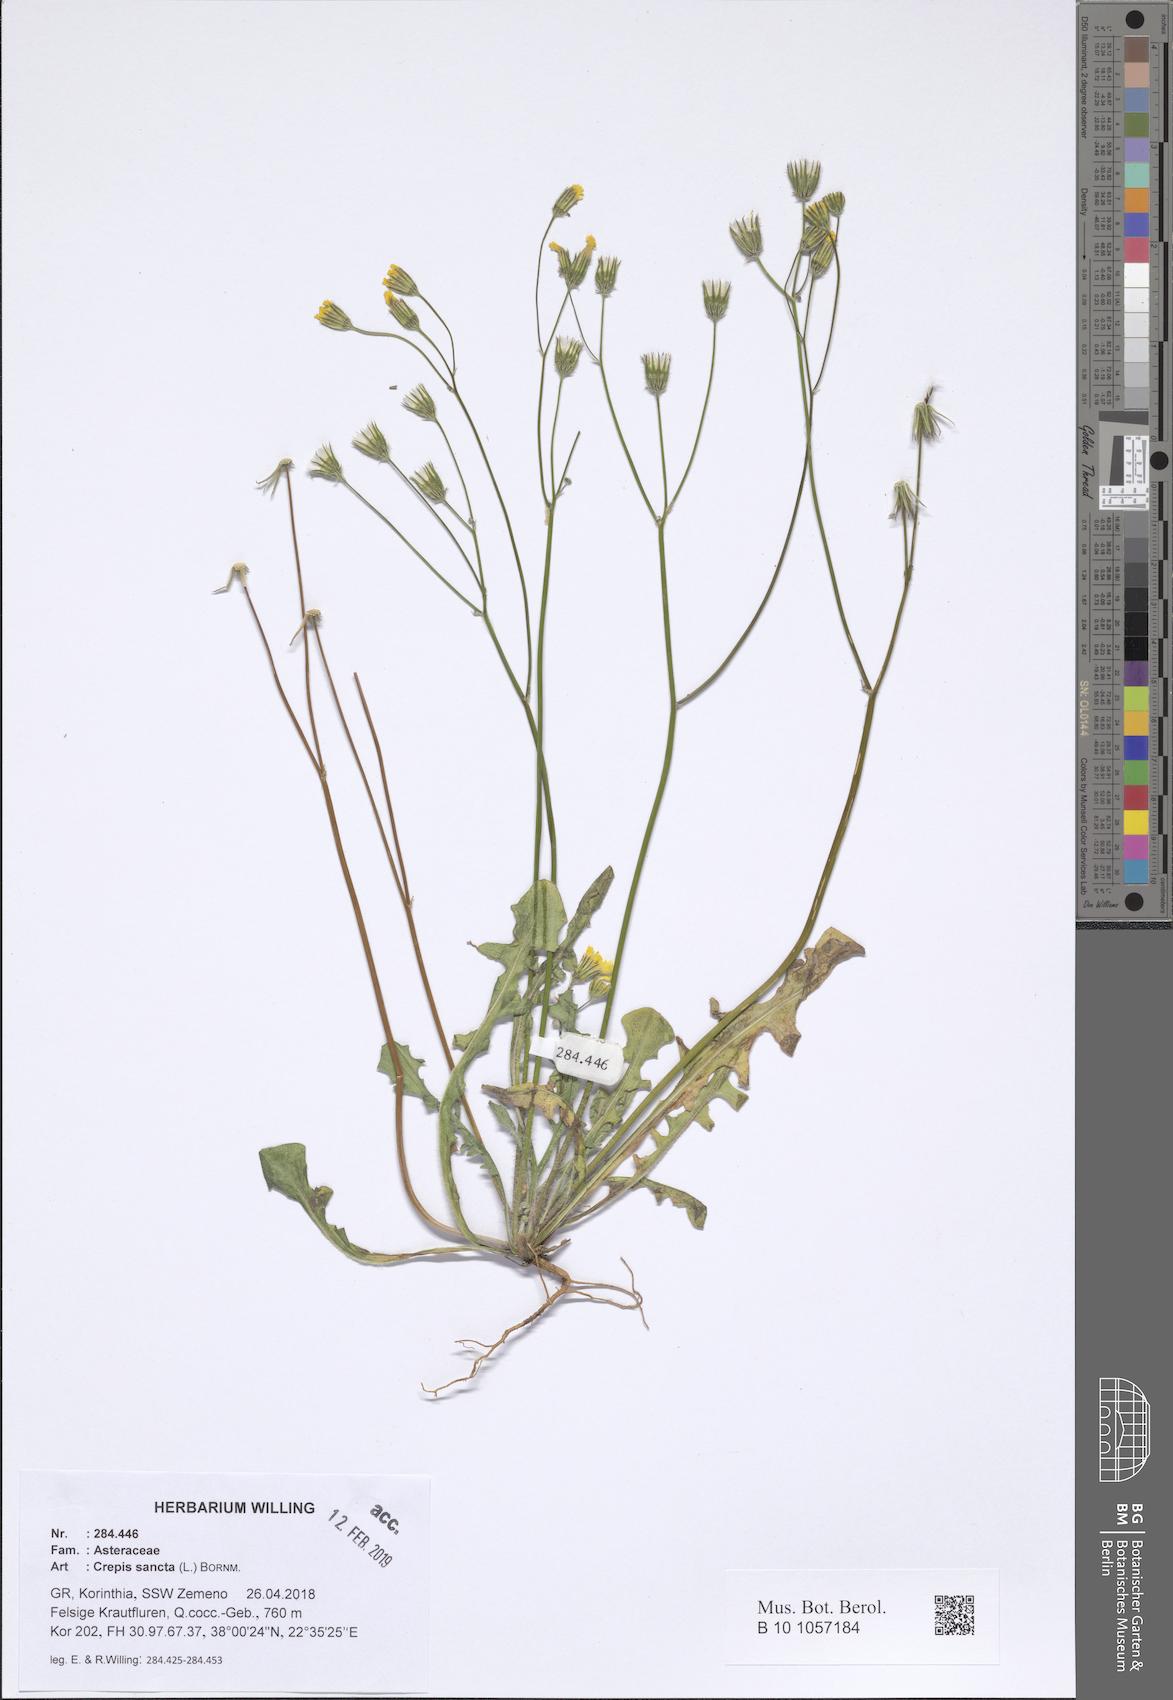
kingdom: Plantae
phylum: Tracheophyta
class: Liliopsida
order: Asparagales
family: Asphodelaceae
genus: Asphodelus
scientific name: Asphodelus fistulosus
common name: Onionweed
